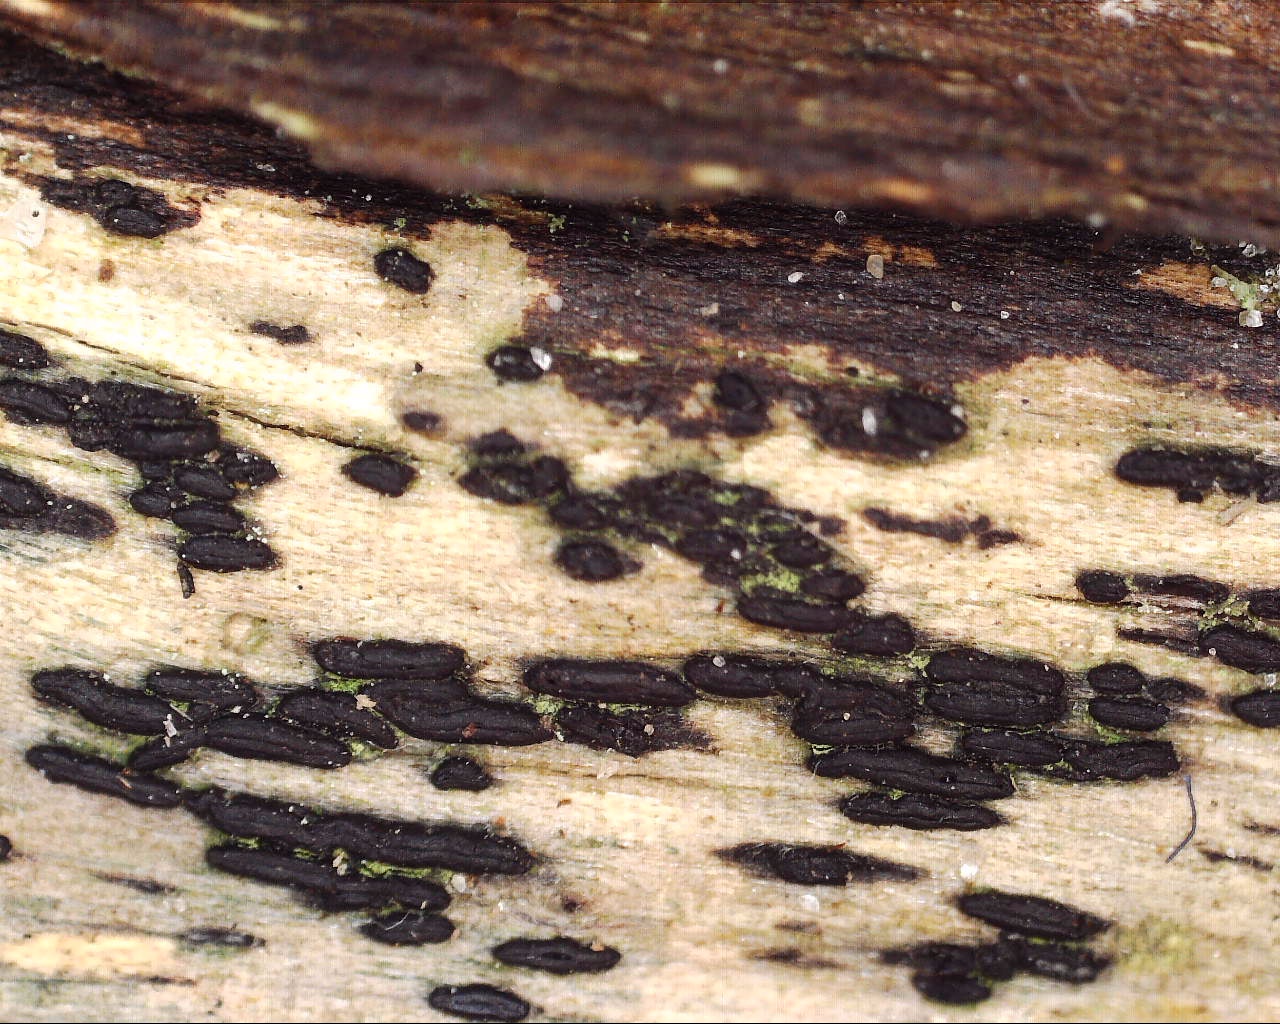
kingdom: Fungi
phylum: Ascomycota
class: Dothideomycetes
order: Hysteriales
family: Hysteriaceae
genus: Hysterium
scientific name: Hysterium acuminatum
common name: almindelig kulmund
